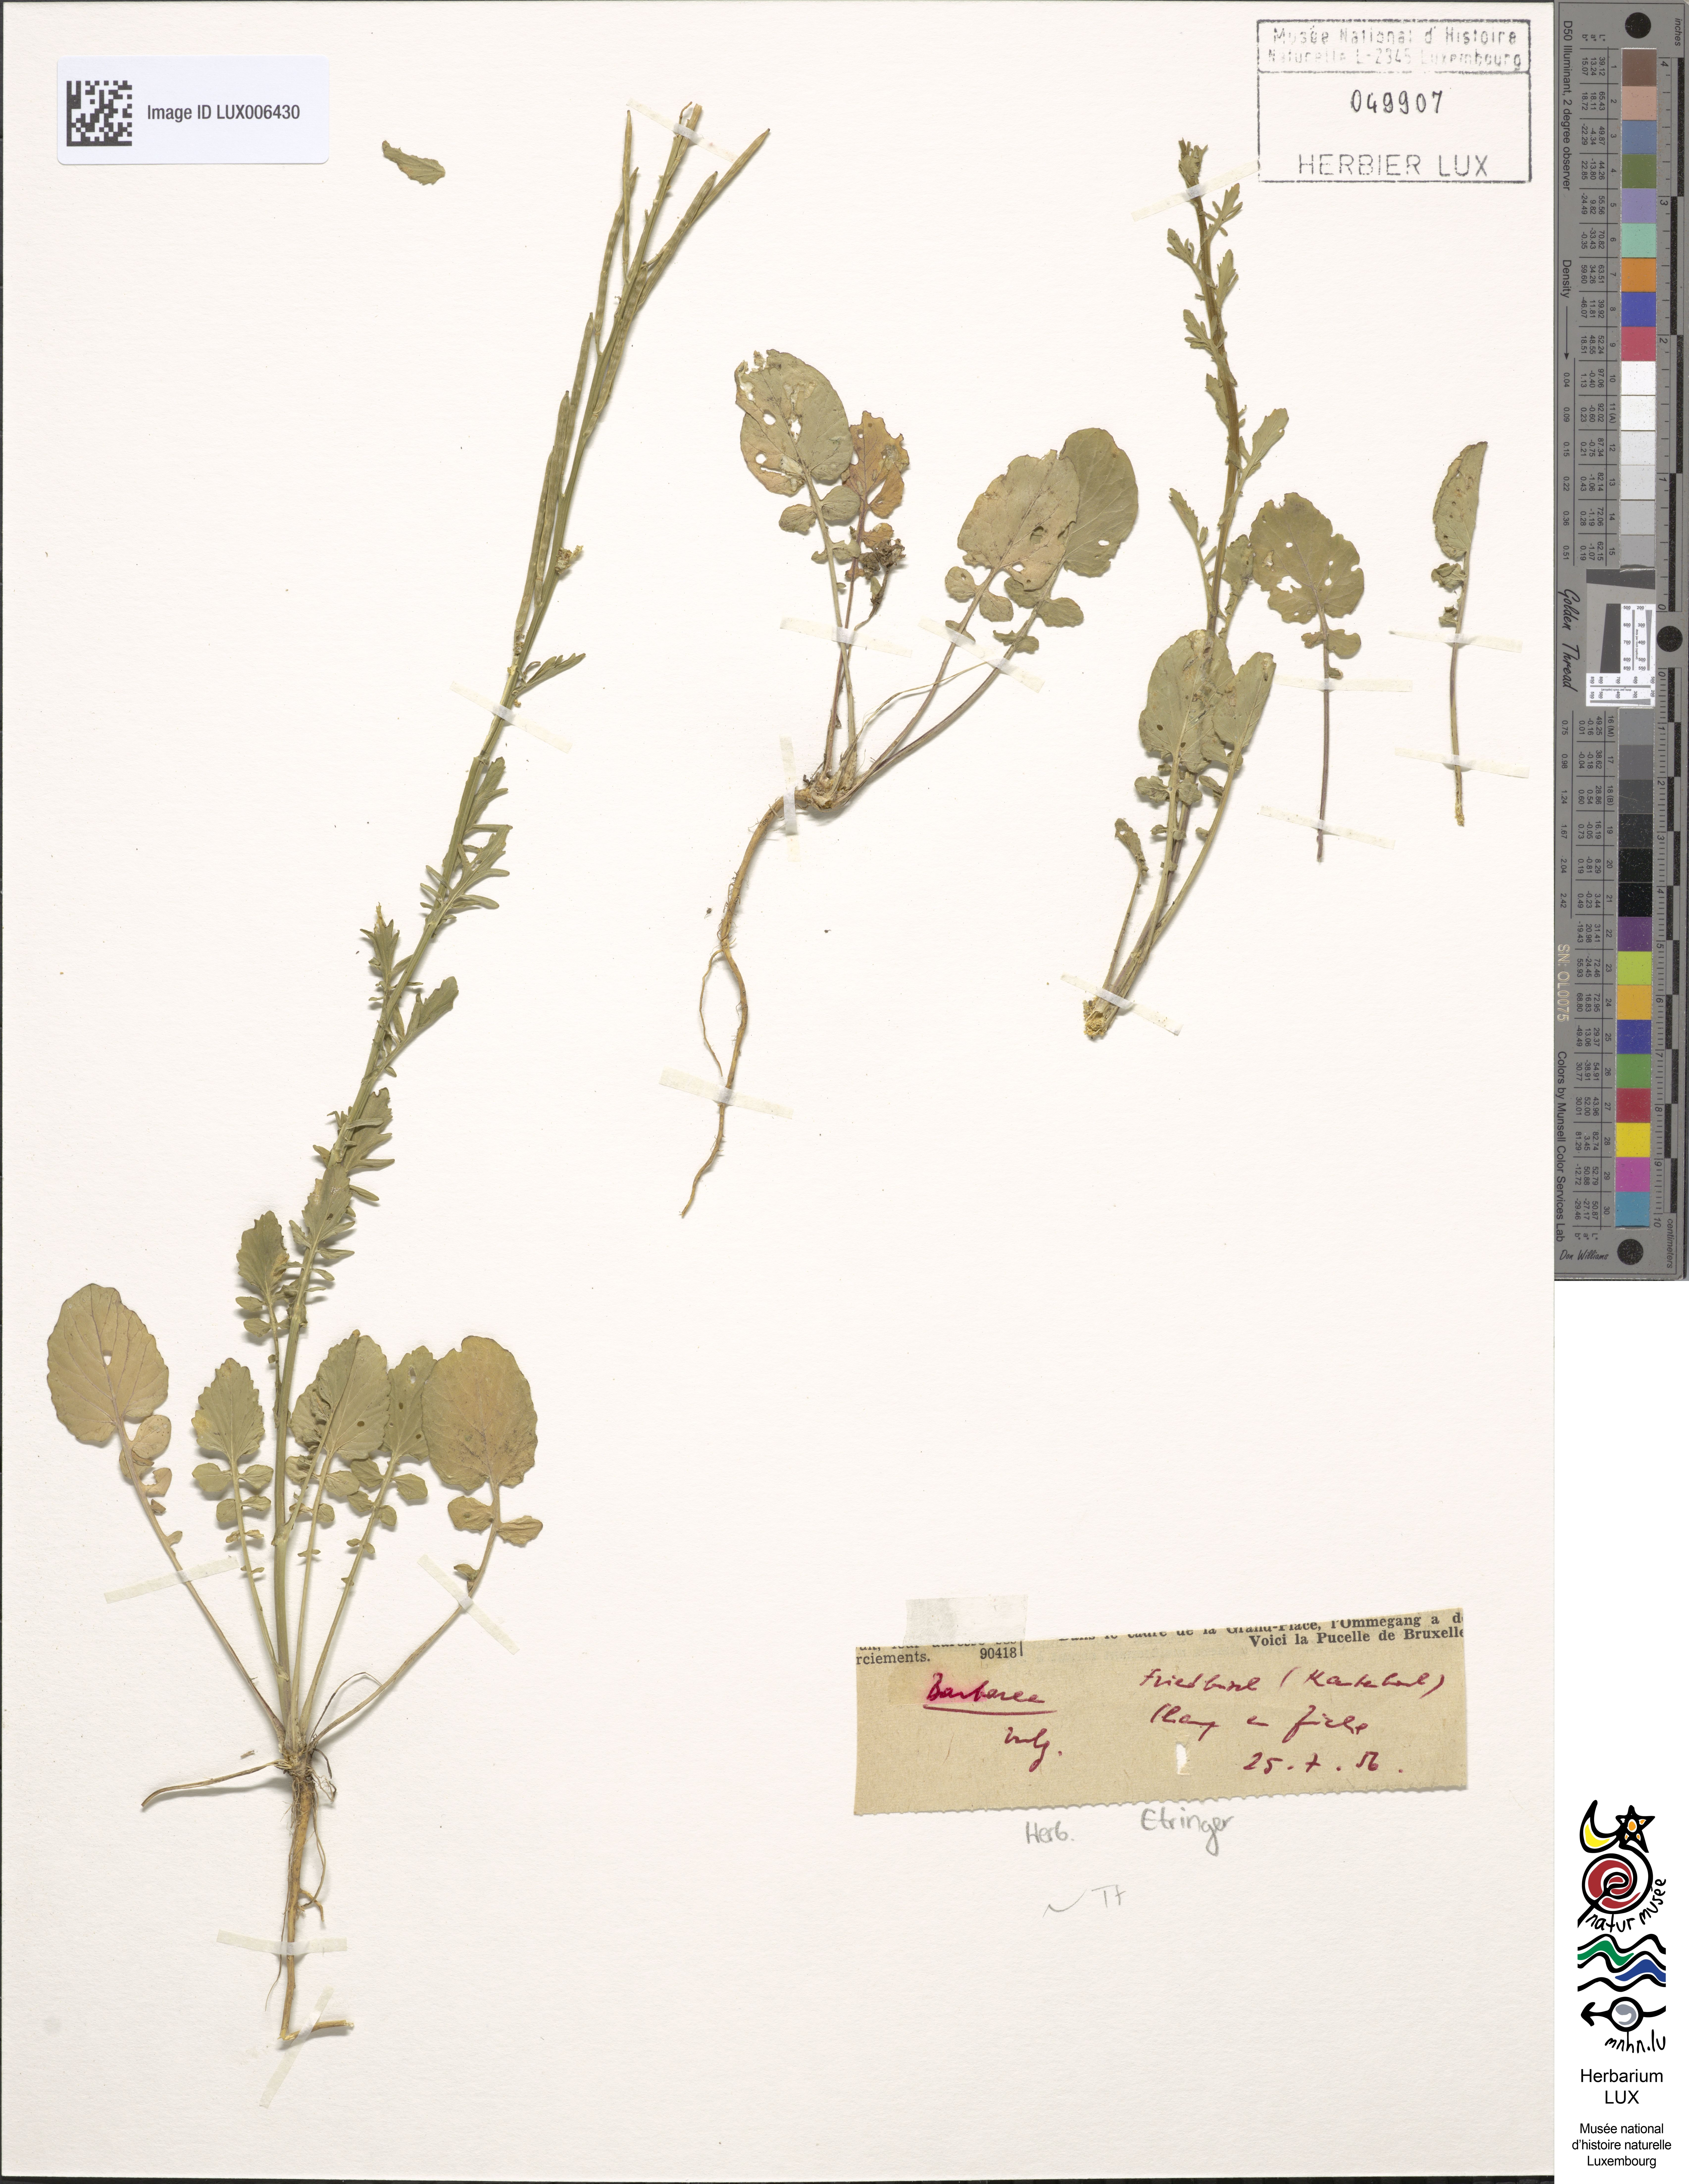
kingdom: Plantae
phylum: Tracheophyta
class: Magnoliopsida
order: Brassicales
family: Brassicaceae
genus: Barbarea
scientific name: Barbarea vulgaris
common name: Cressy-greens
